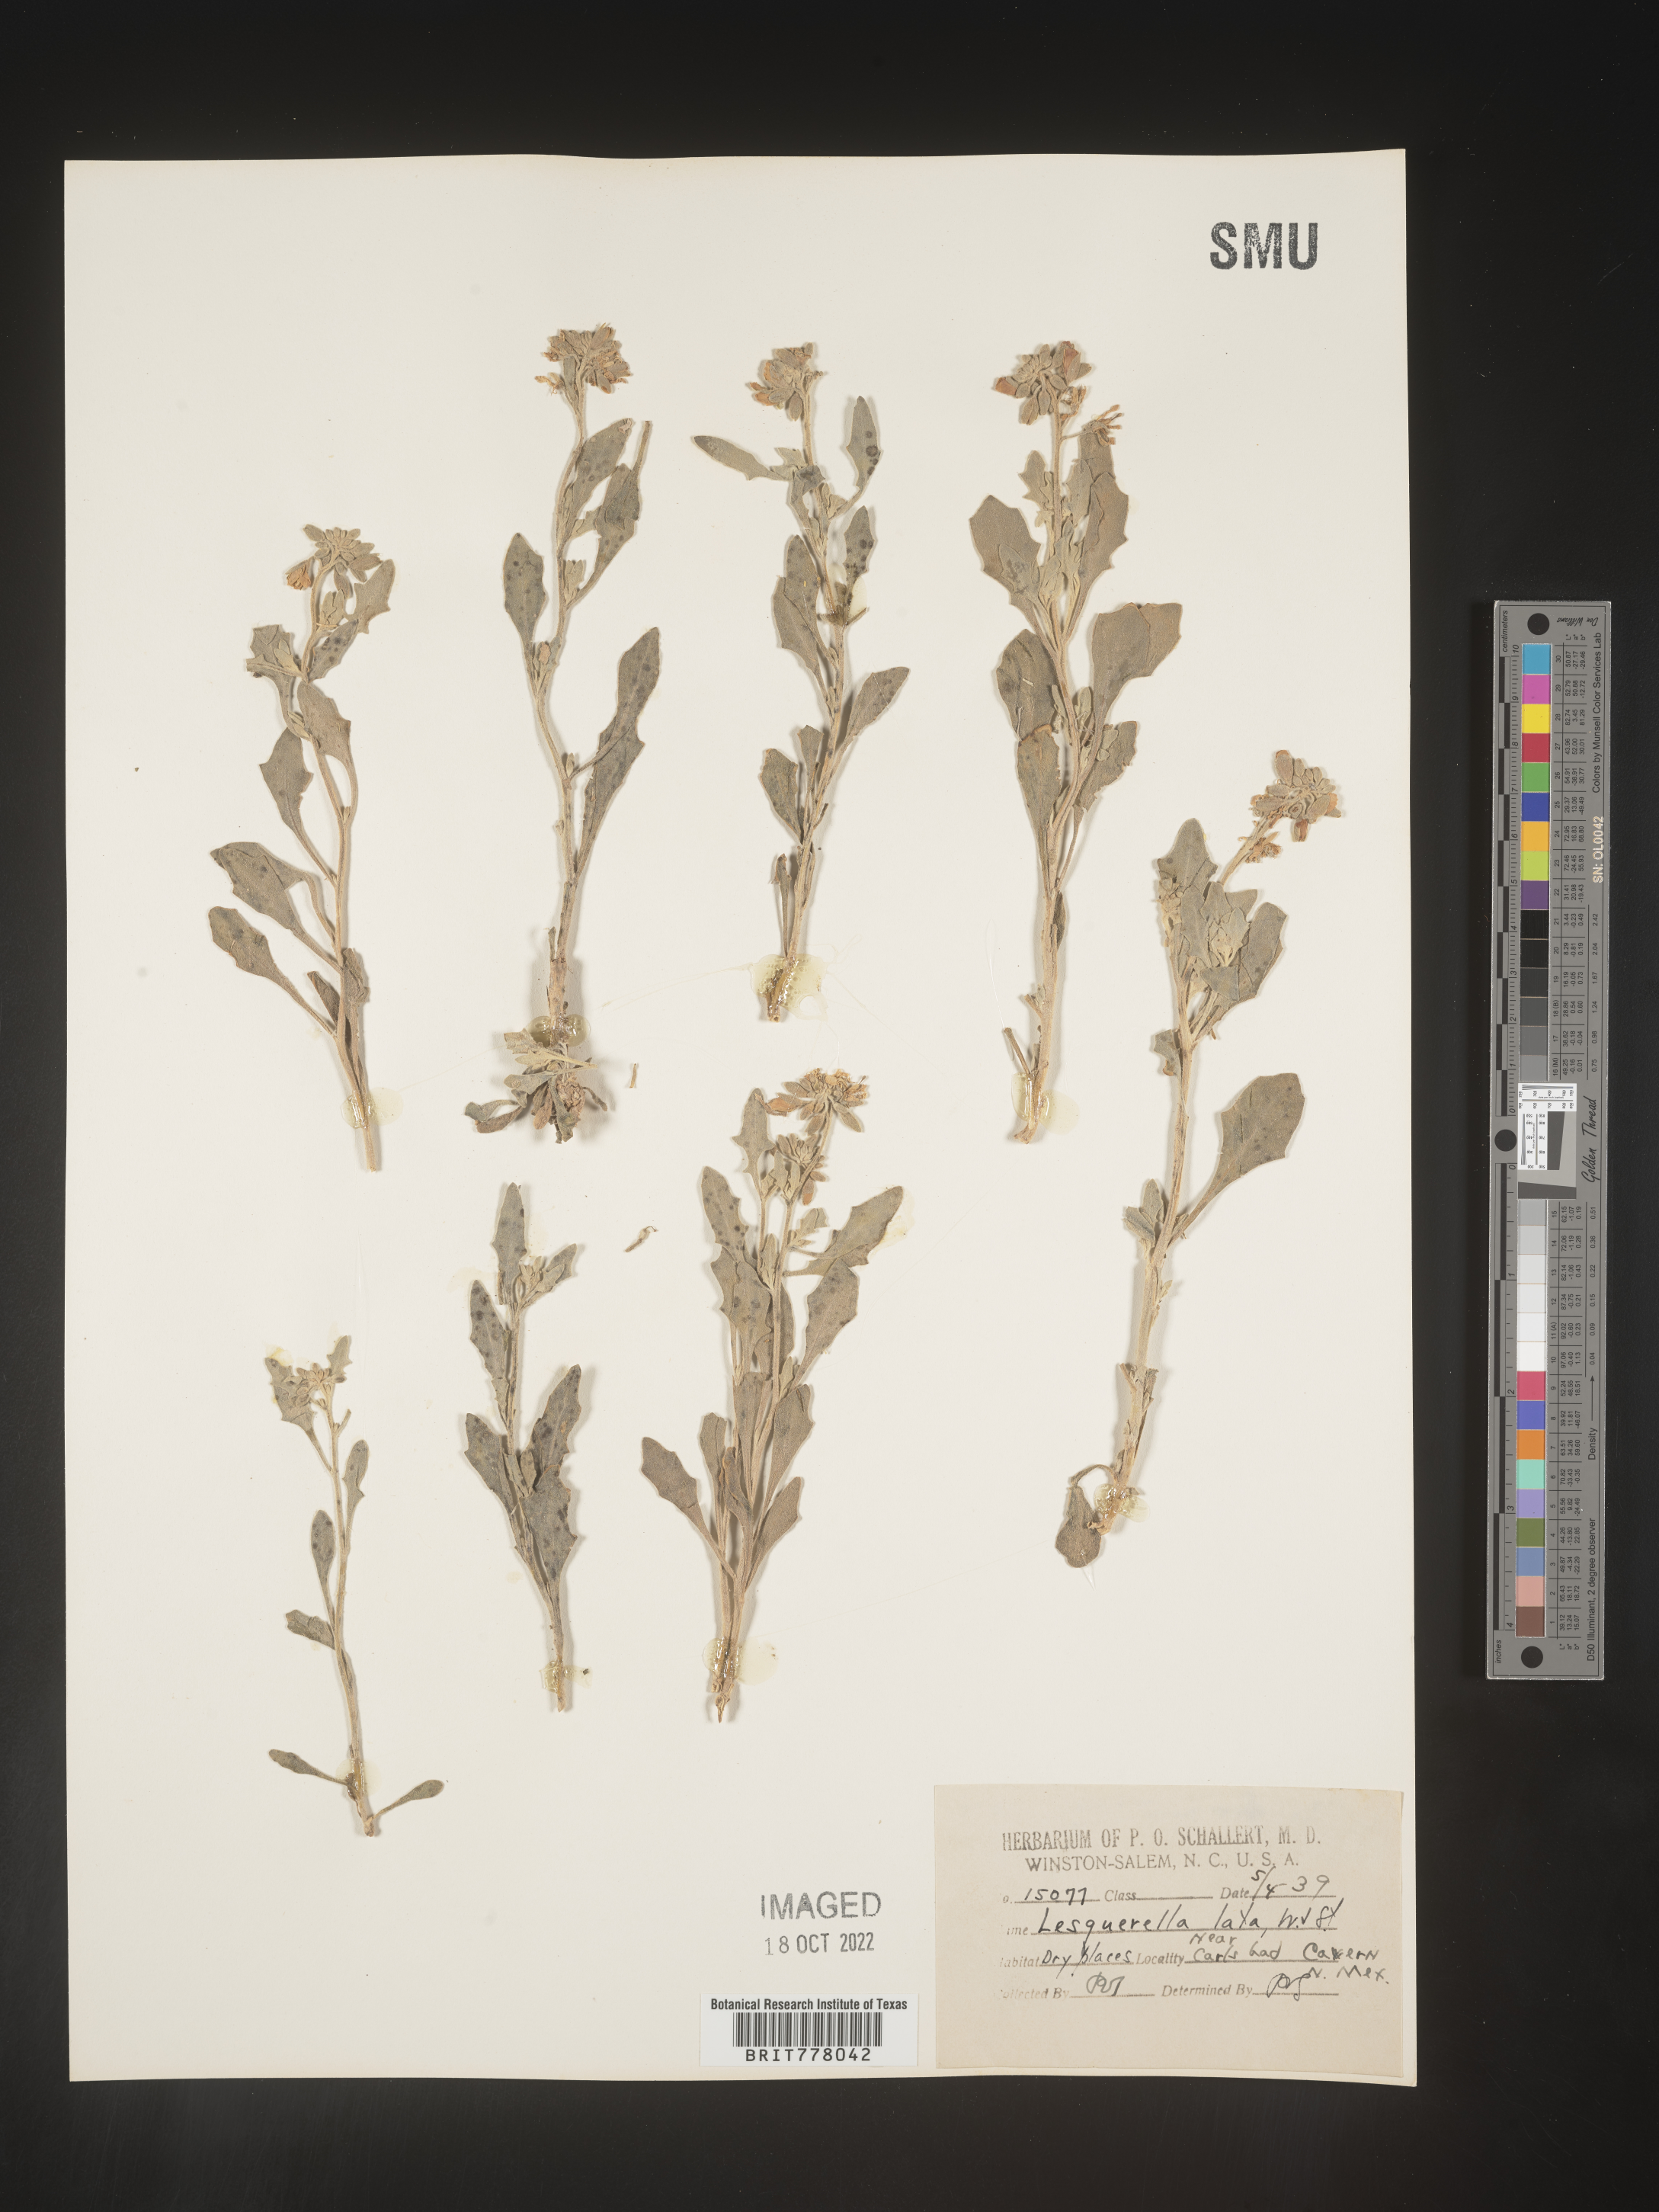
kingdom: Chromista
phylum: Cercozoa
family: Psammonobiotidae
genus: Lesquerella
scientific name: Lesquerella
